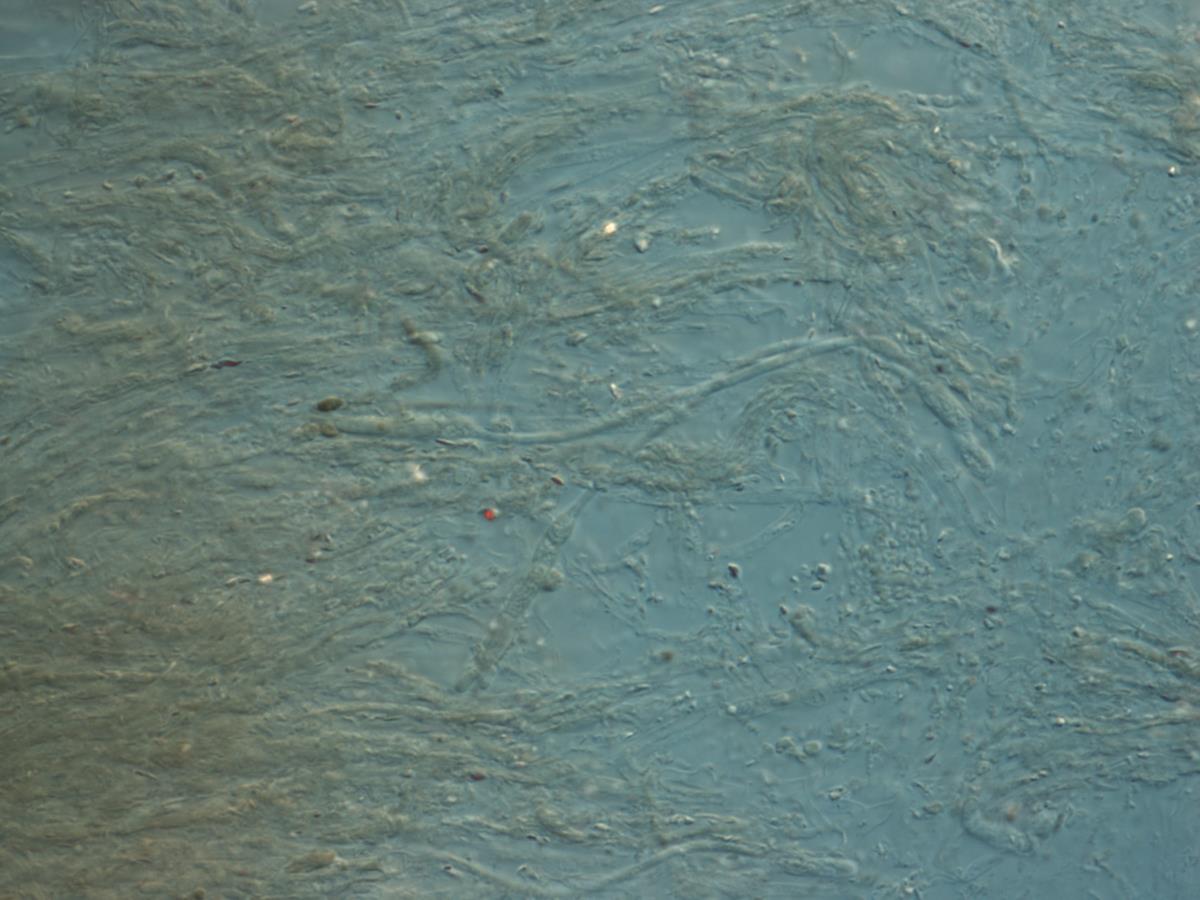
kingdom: Fungi
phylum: Ascomycota
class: Leotiomycetes
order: Helotiales
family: Vibrisseaceae
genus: Chlorovibrissea
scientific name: Chlorovibrissea phialophora
